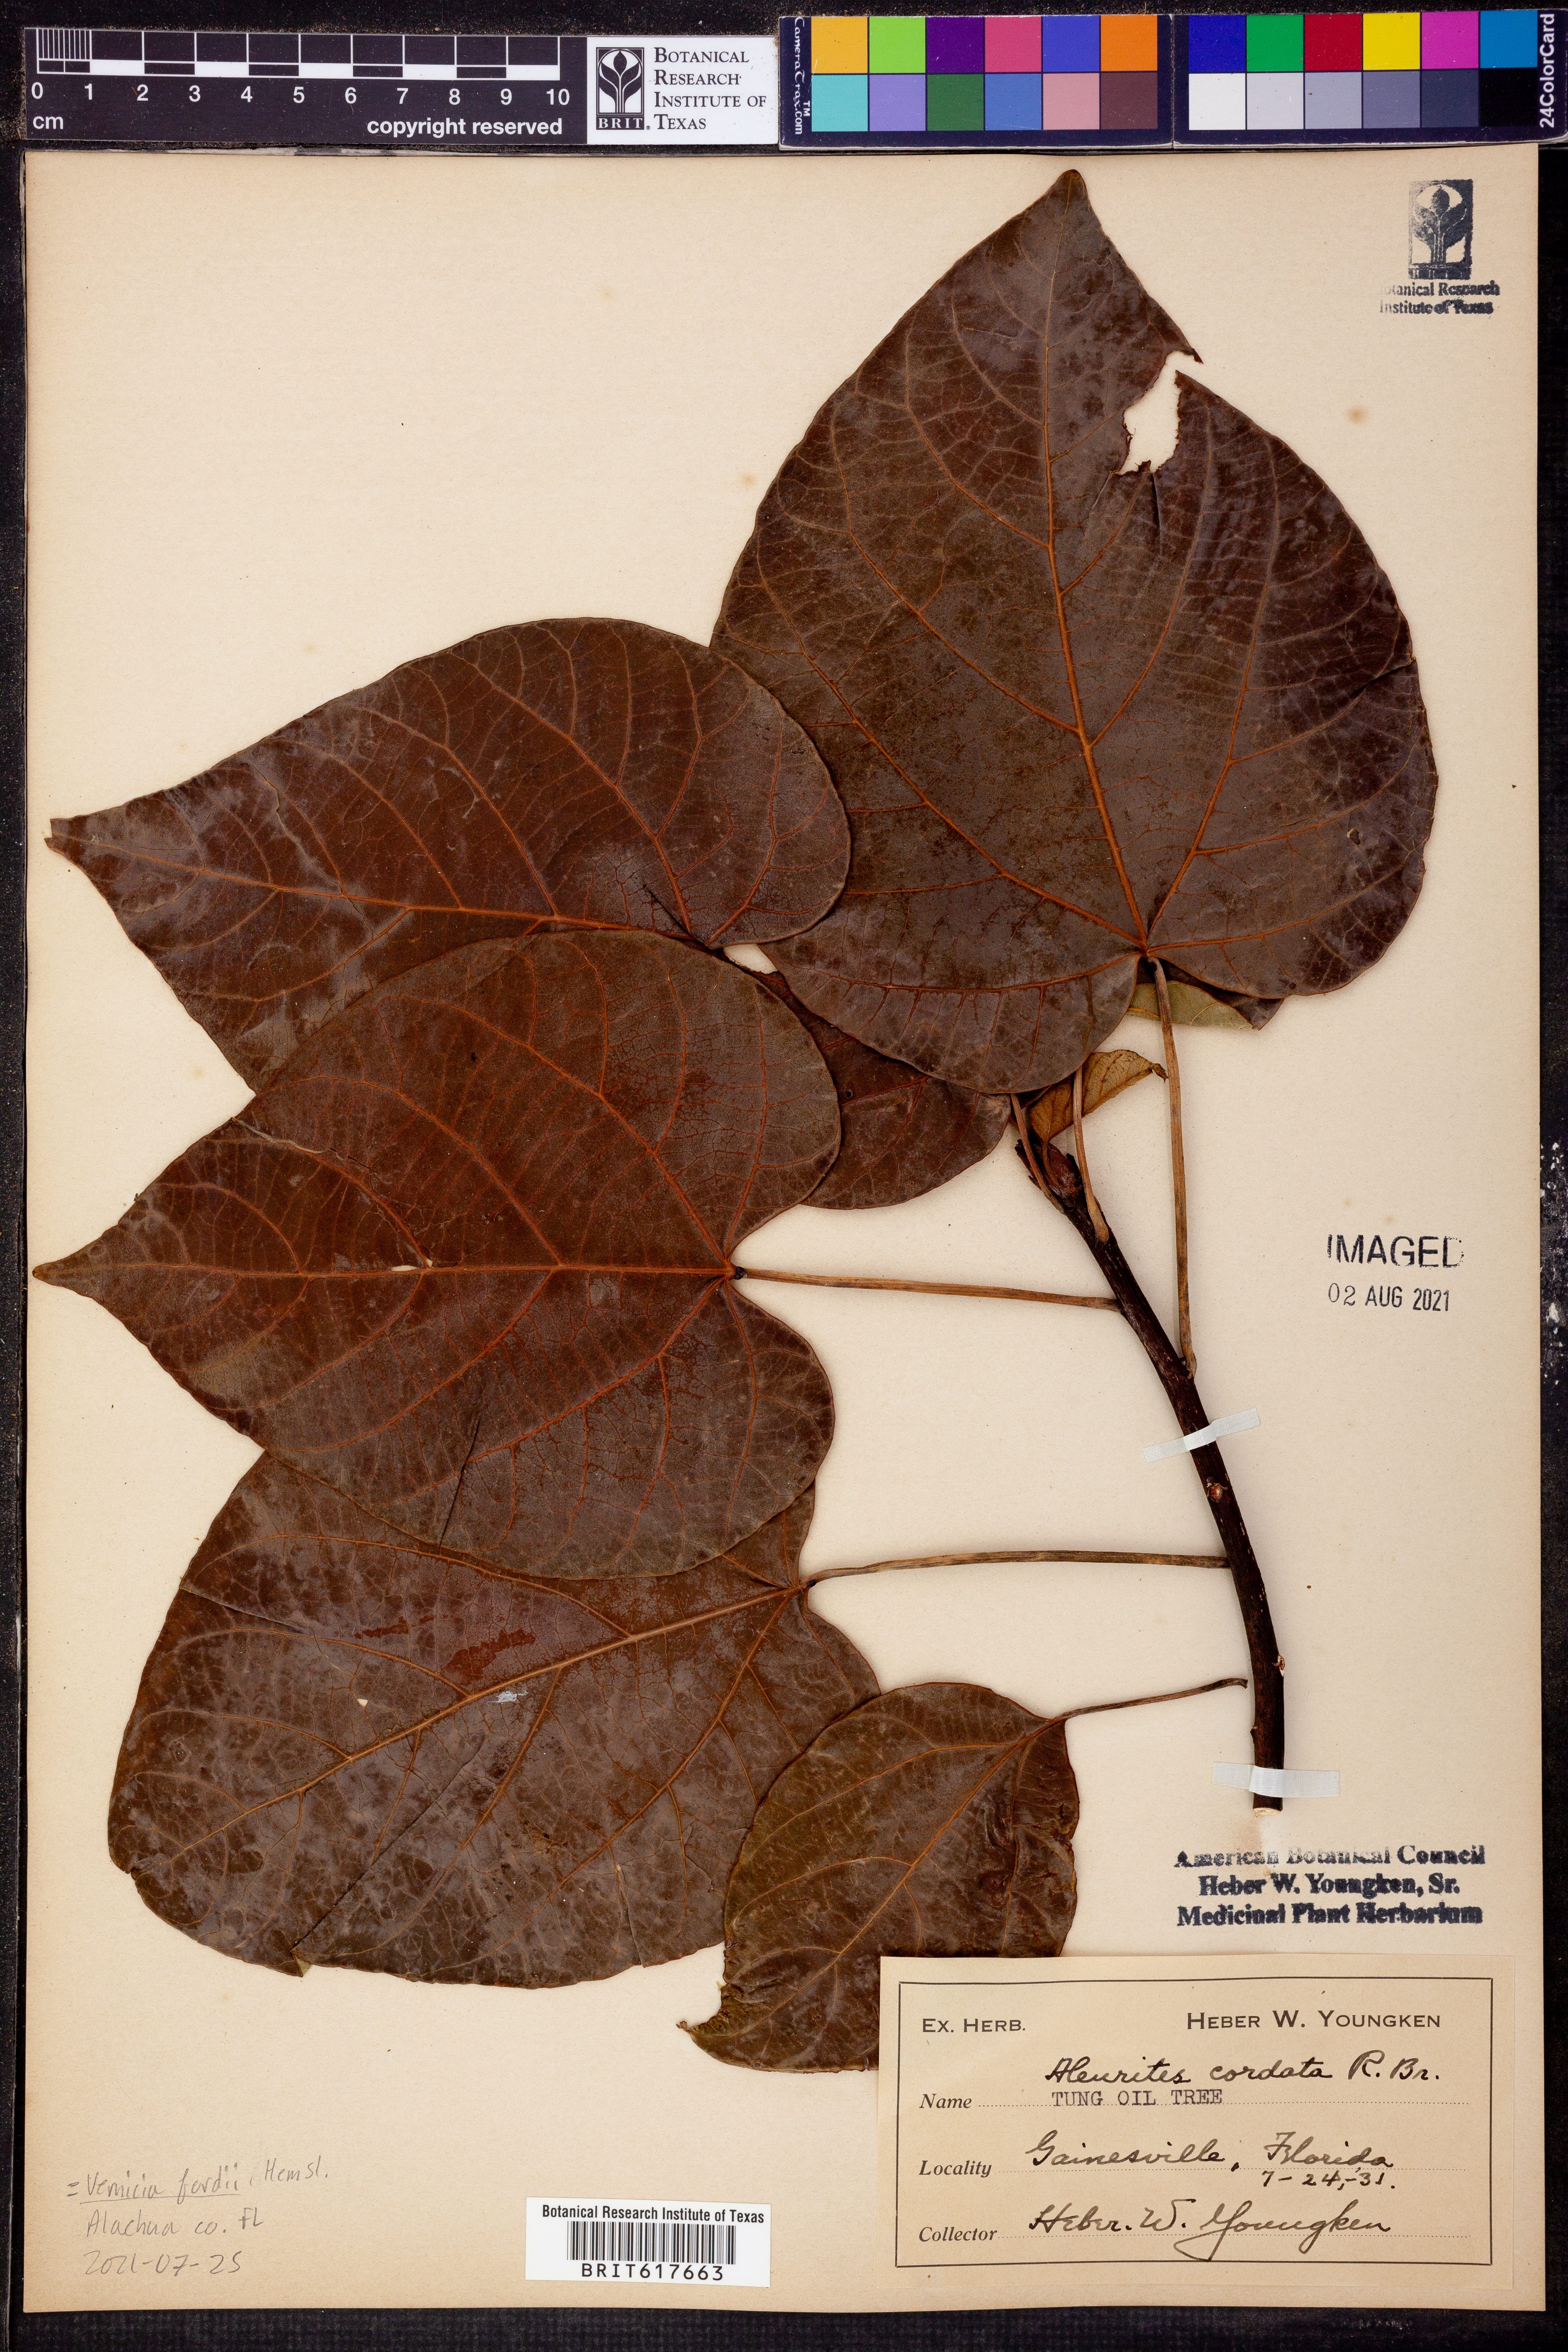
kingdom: Plantae
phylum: Tracheophyta
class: Magnoliopsida
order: Malpighiales
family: Euphorbiaceae
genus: Vernicia
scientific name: Vernicia cordata
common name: Japanese tung-oil-tree
